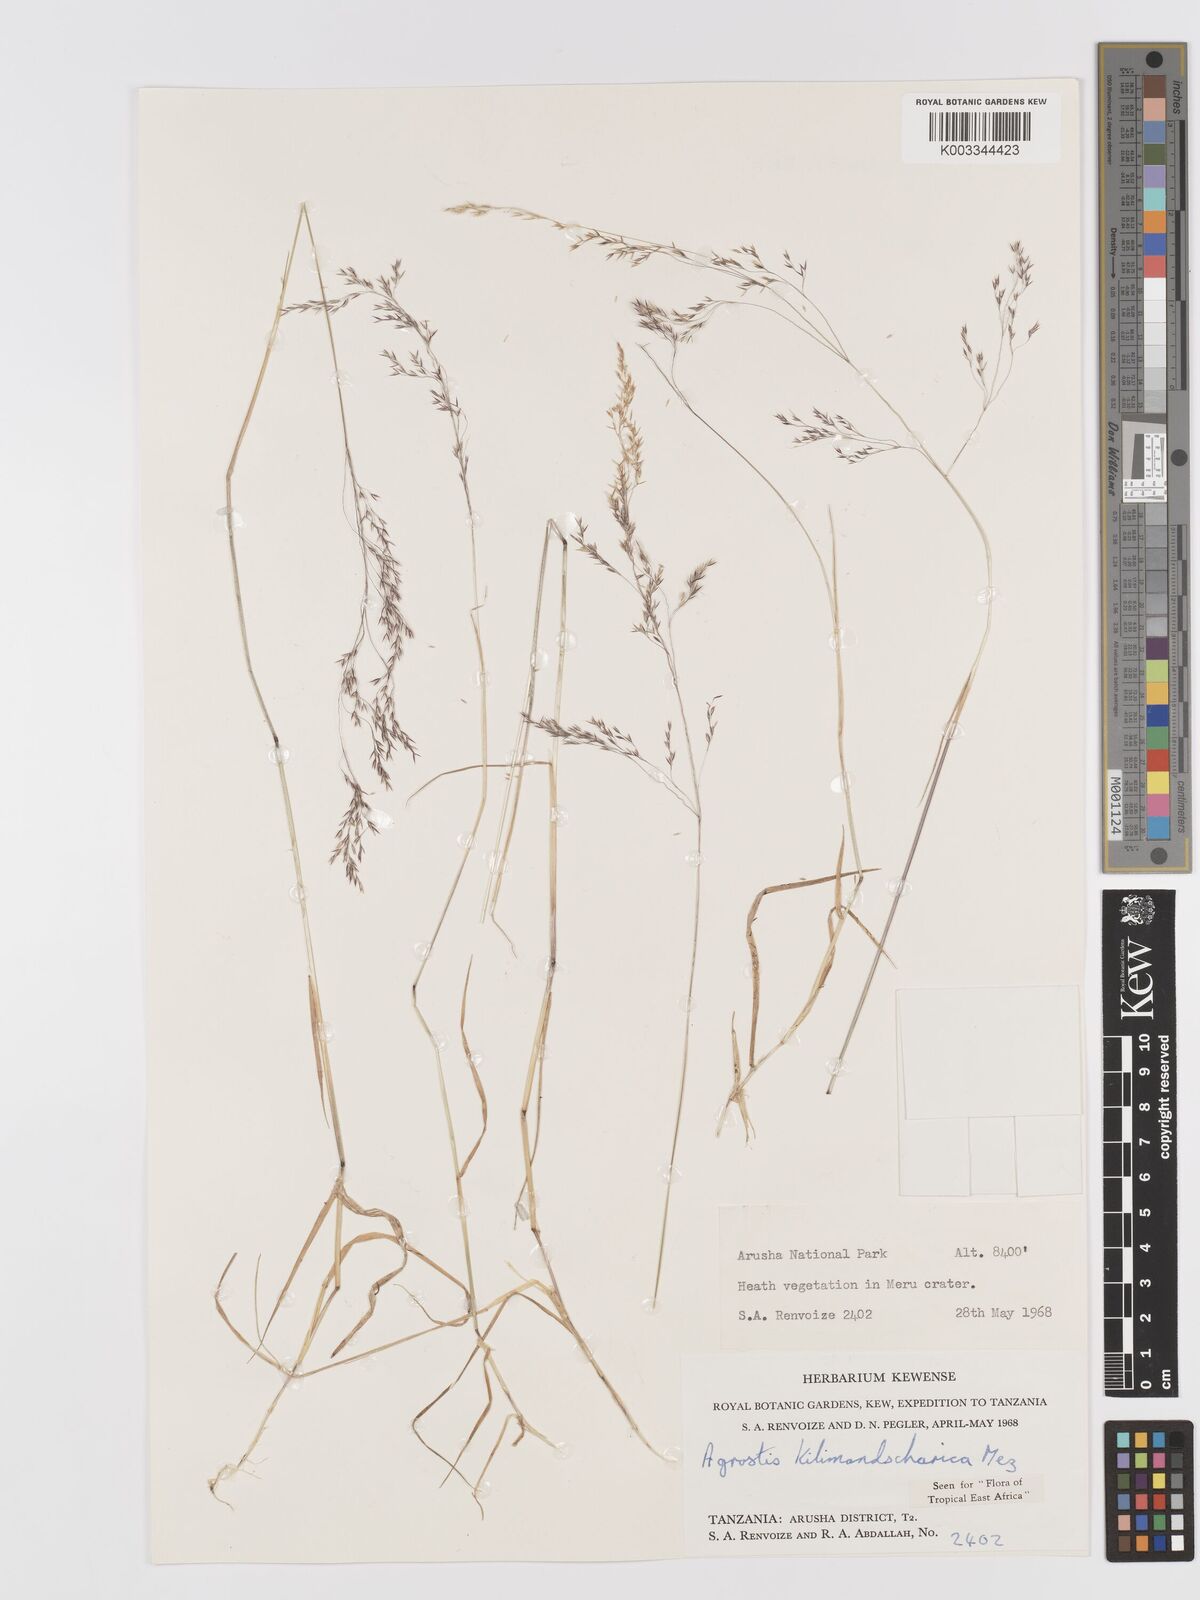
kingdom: Plantae
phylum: Tracheophyta
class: Liliopsida
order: Poales
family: Poaceae
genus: Agrostis
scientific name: Agrostis kilimandscharica
